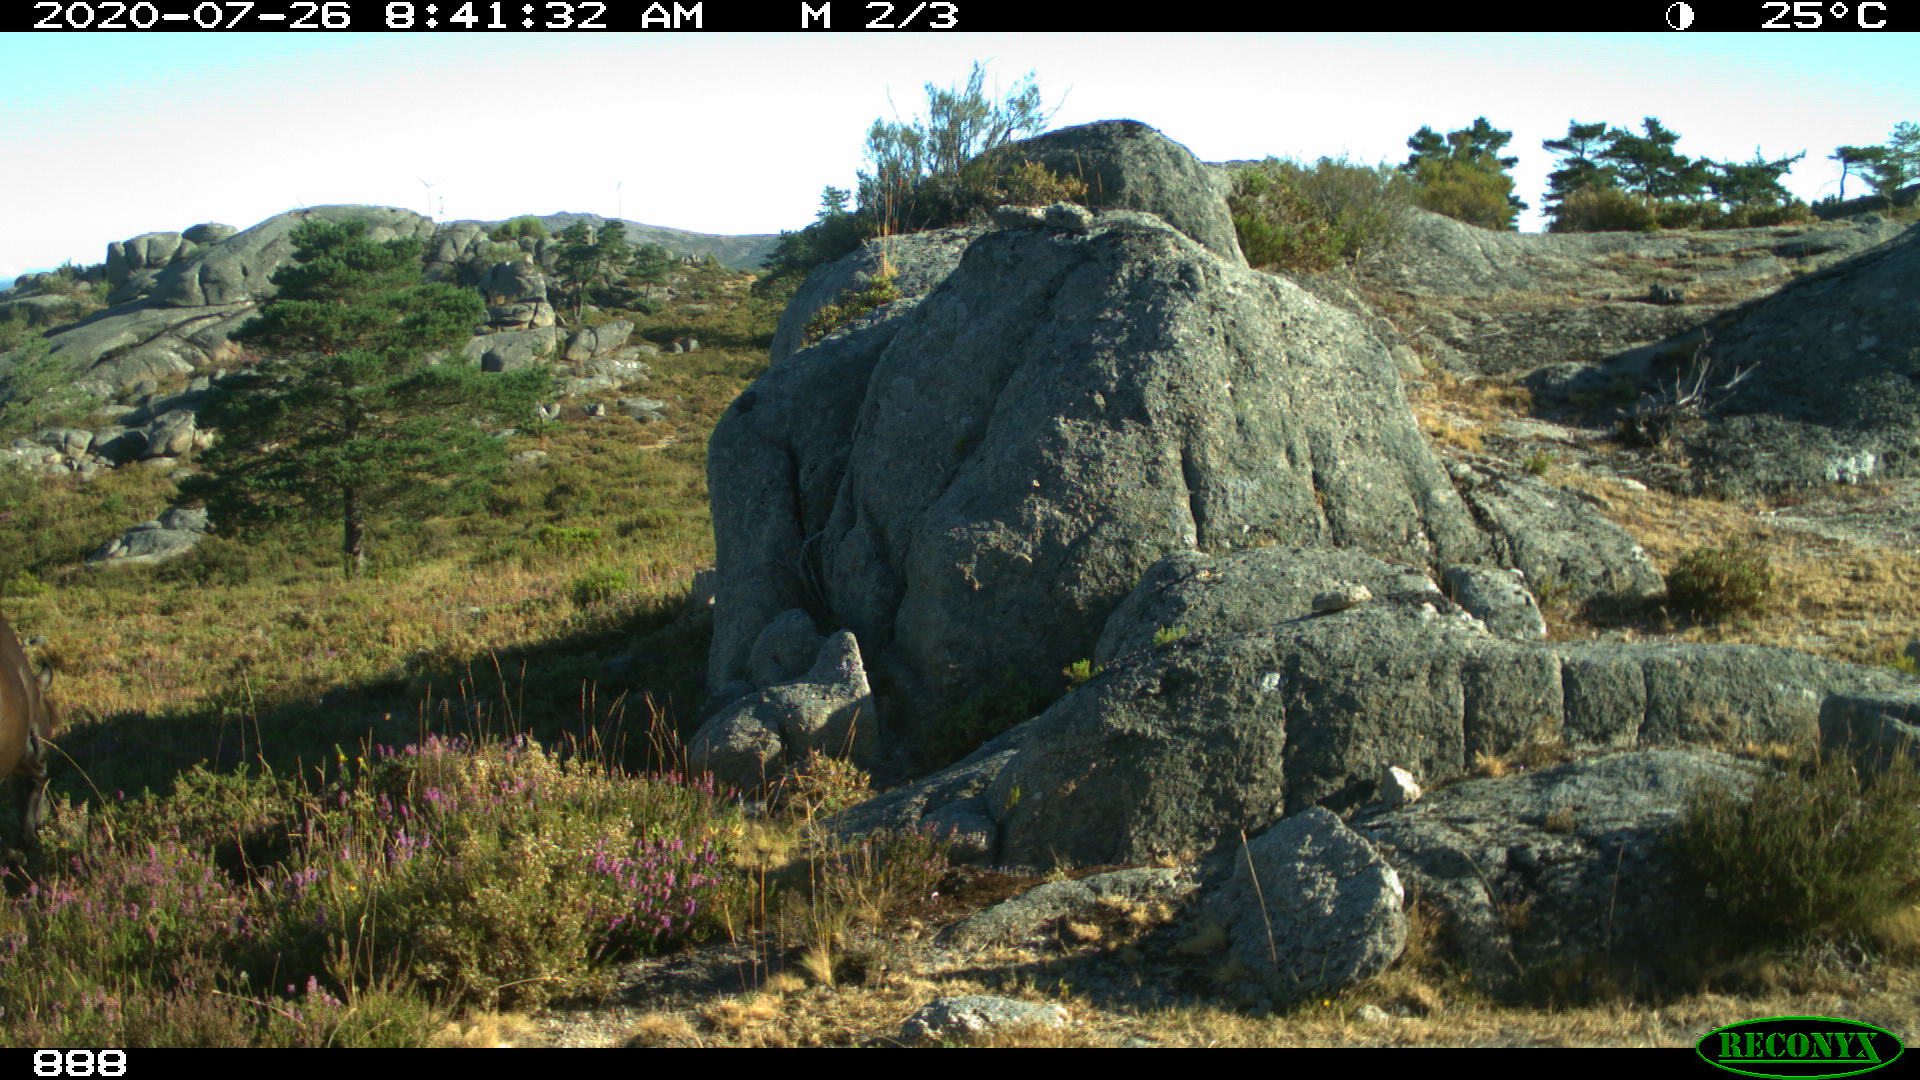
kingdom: Animalia
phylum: Chordata
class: Mammalia
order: Perissodactyla
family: Equidae
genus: Equus
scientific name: Equus caballus
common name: Horse
